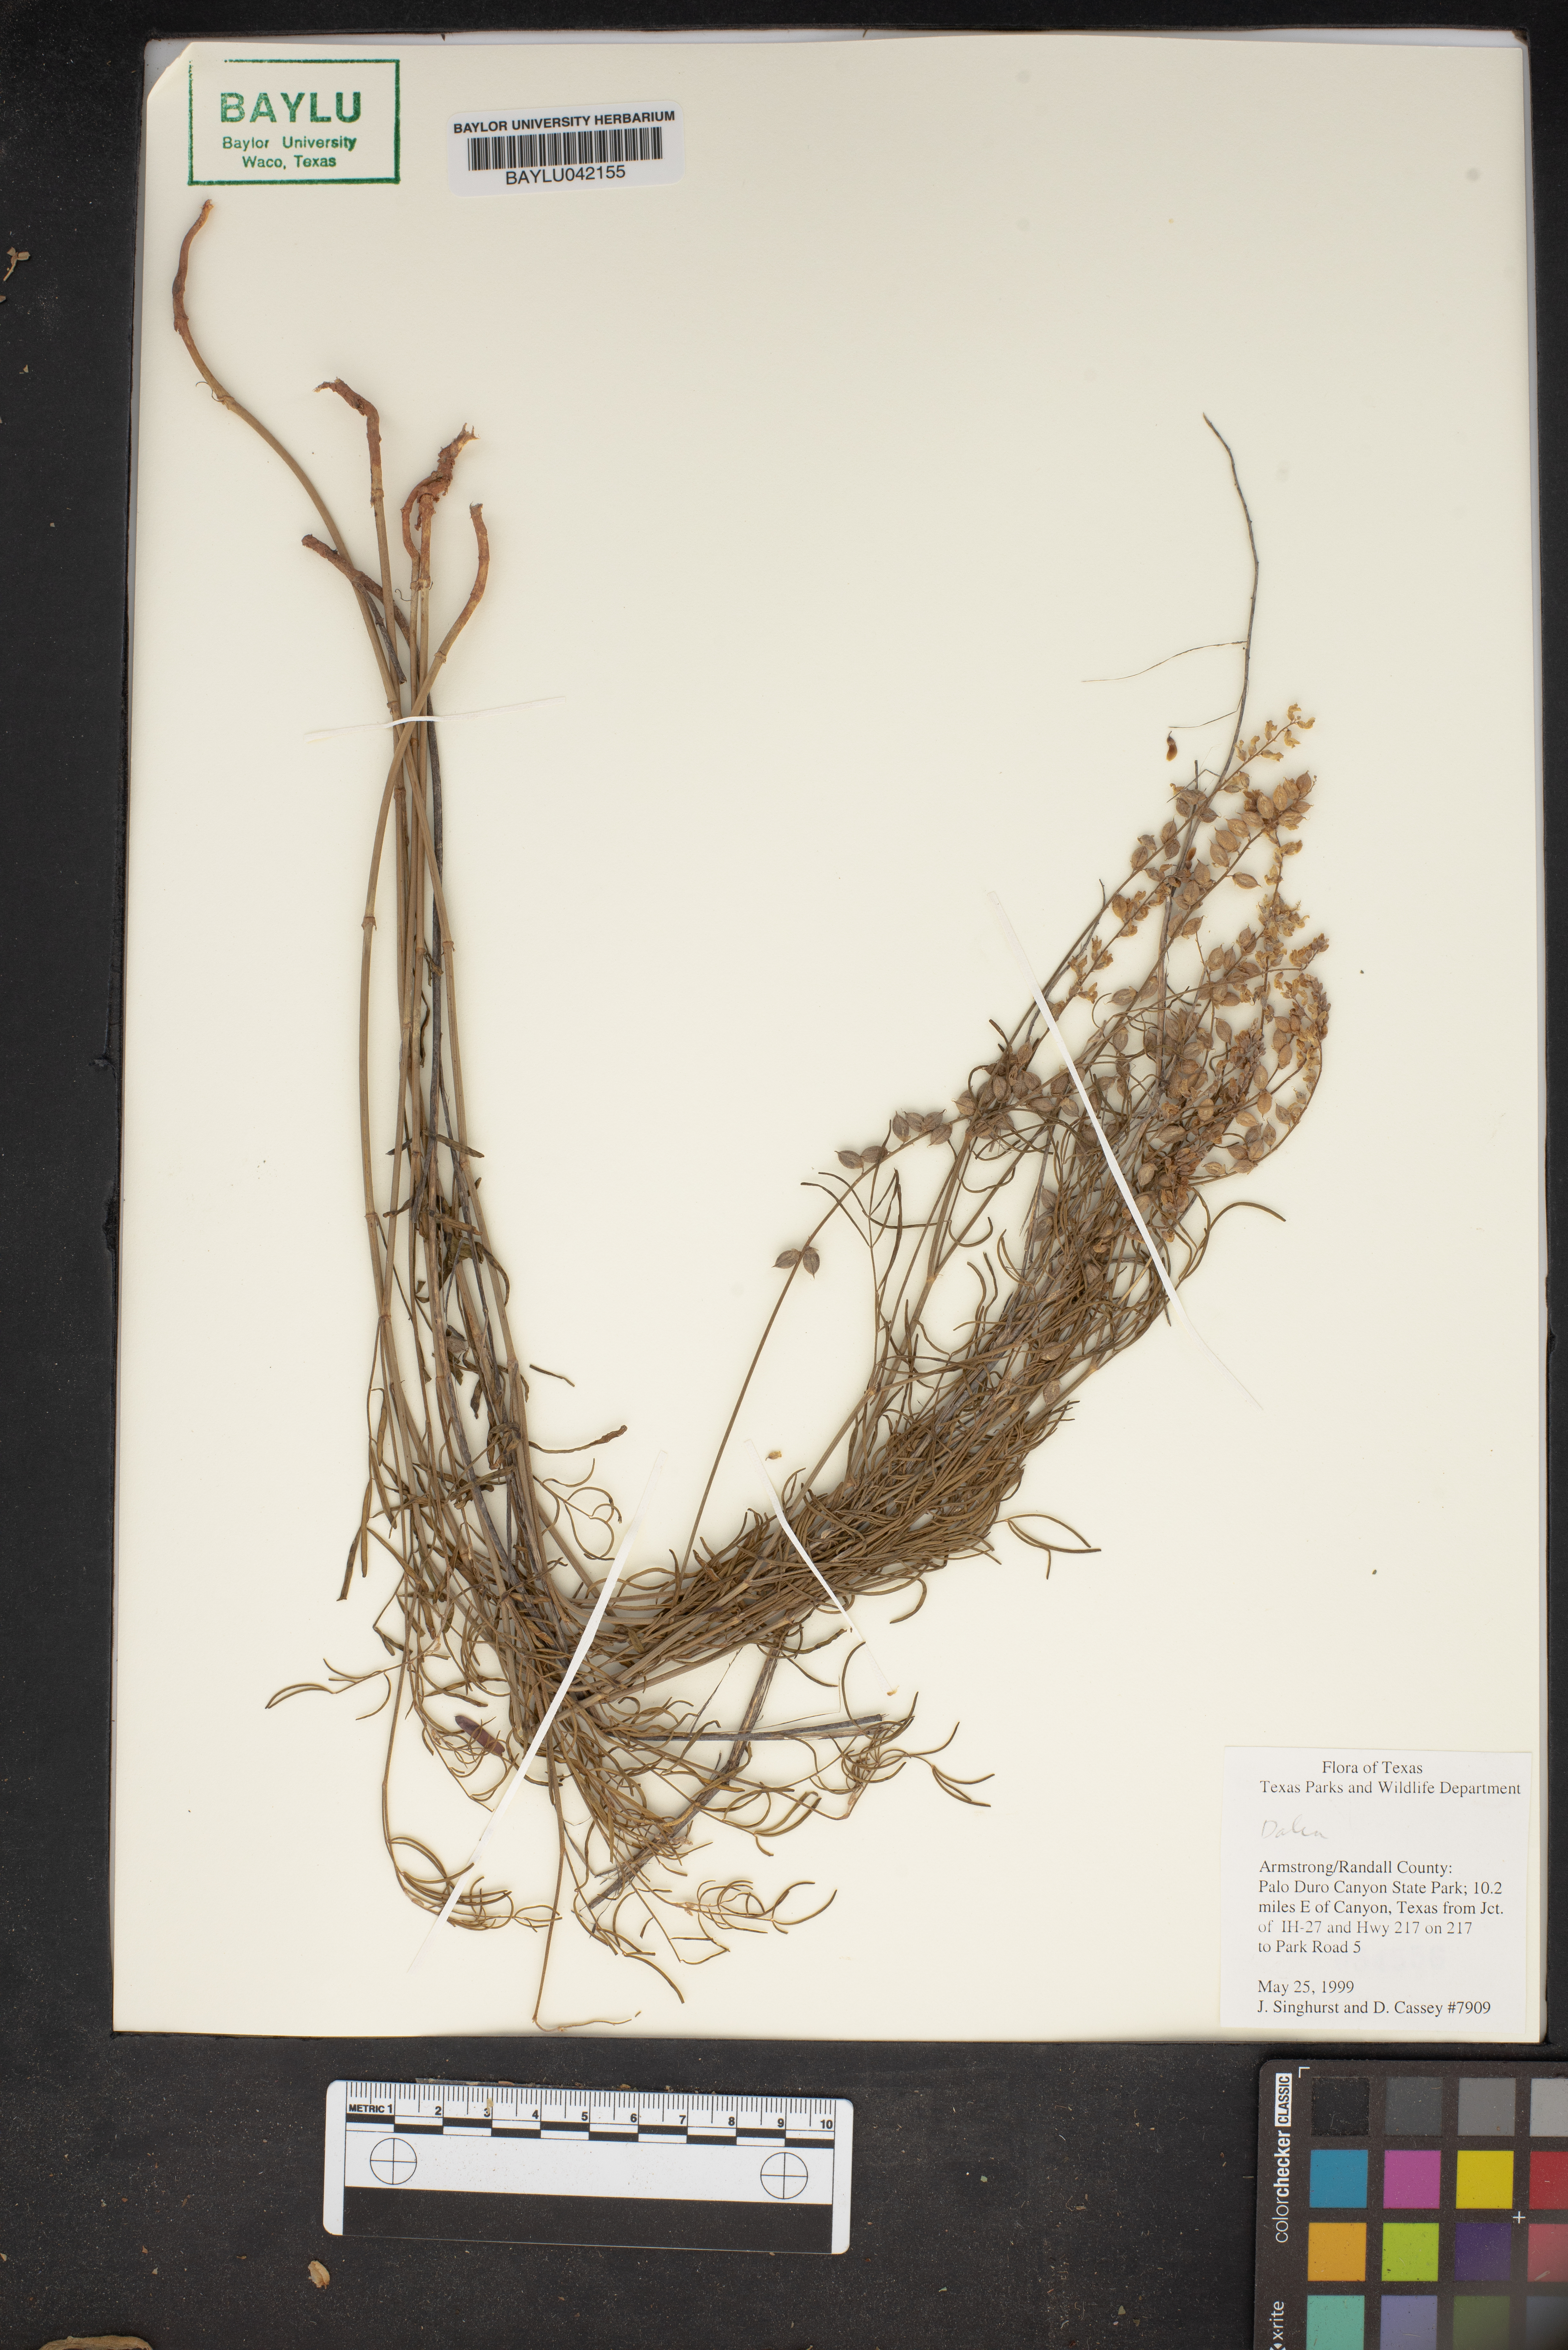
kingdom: Plantae
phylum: Tracheophyta
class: Magnoliopsida
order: Fabales
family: Fabaceae
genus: Dalea
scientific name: Dalea
